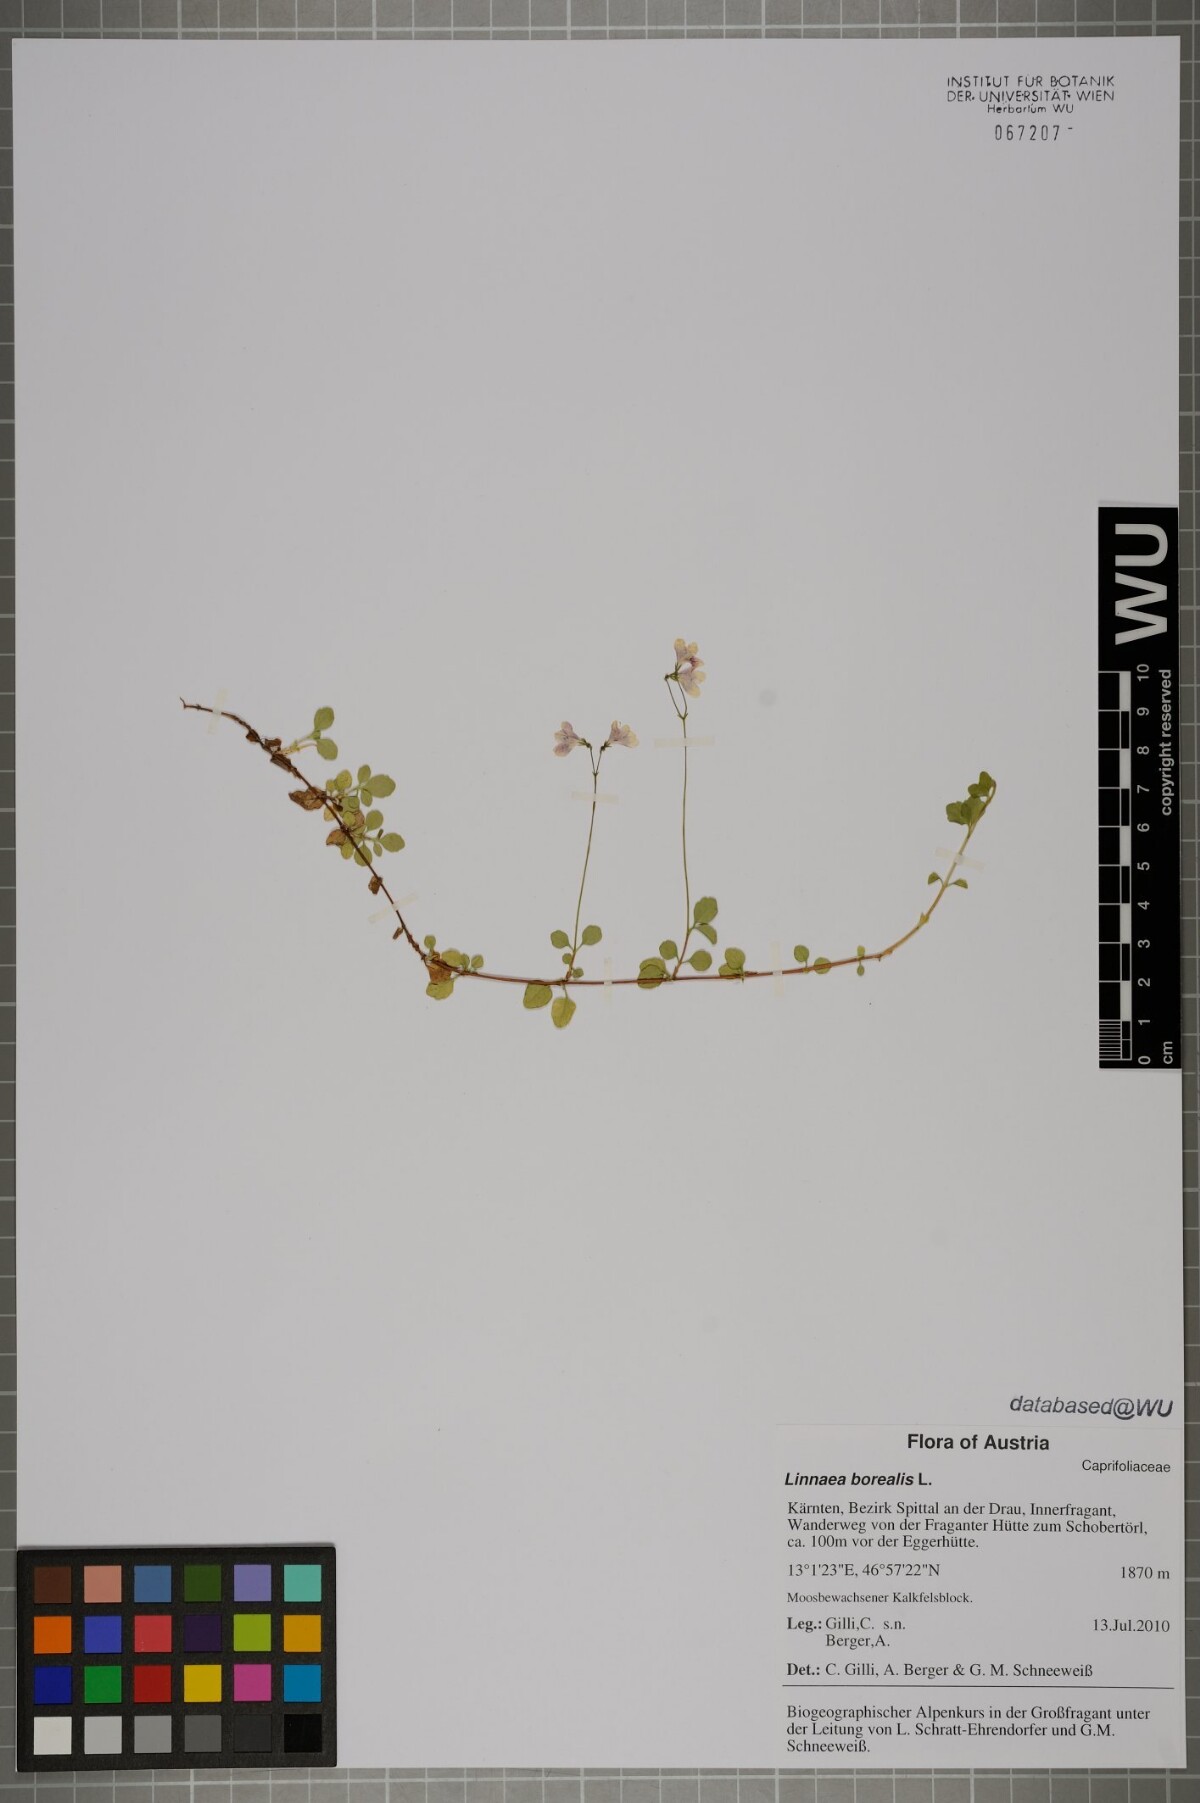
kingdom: Plantae
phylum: Tracheophyta
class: Magnoliopsida
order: Dipsacales
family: Caprifoliaceae
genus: Linnaea
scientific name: Linnaea borealis
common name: Twinflower
